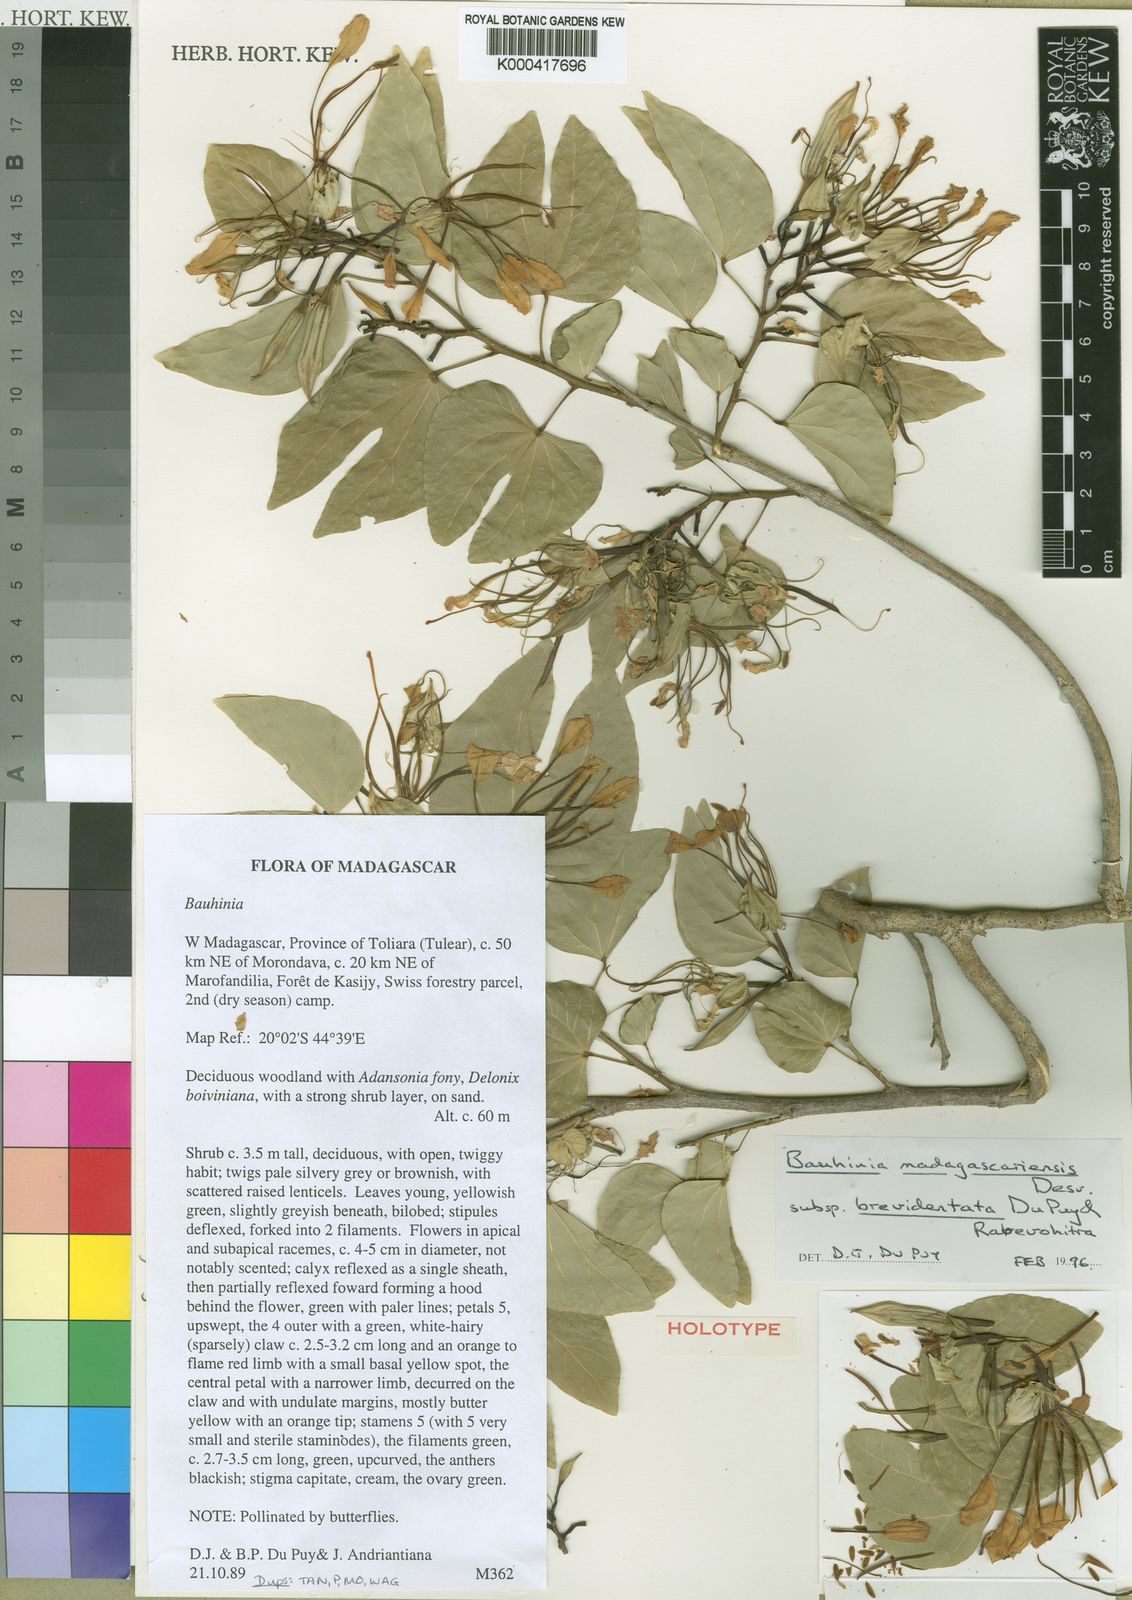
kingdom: Plantae
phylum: Tracheophyta
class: Magnoliopsida
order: Fabales
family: Fabaceae
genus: Bauhinia
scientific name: Bauhinia madagascariensis
